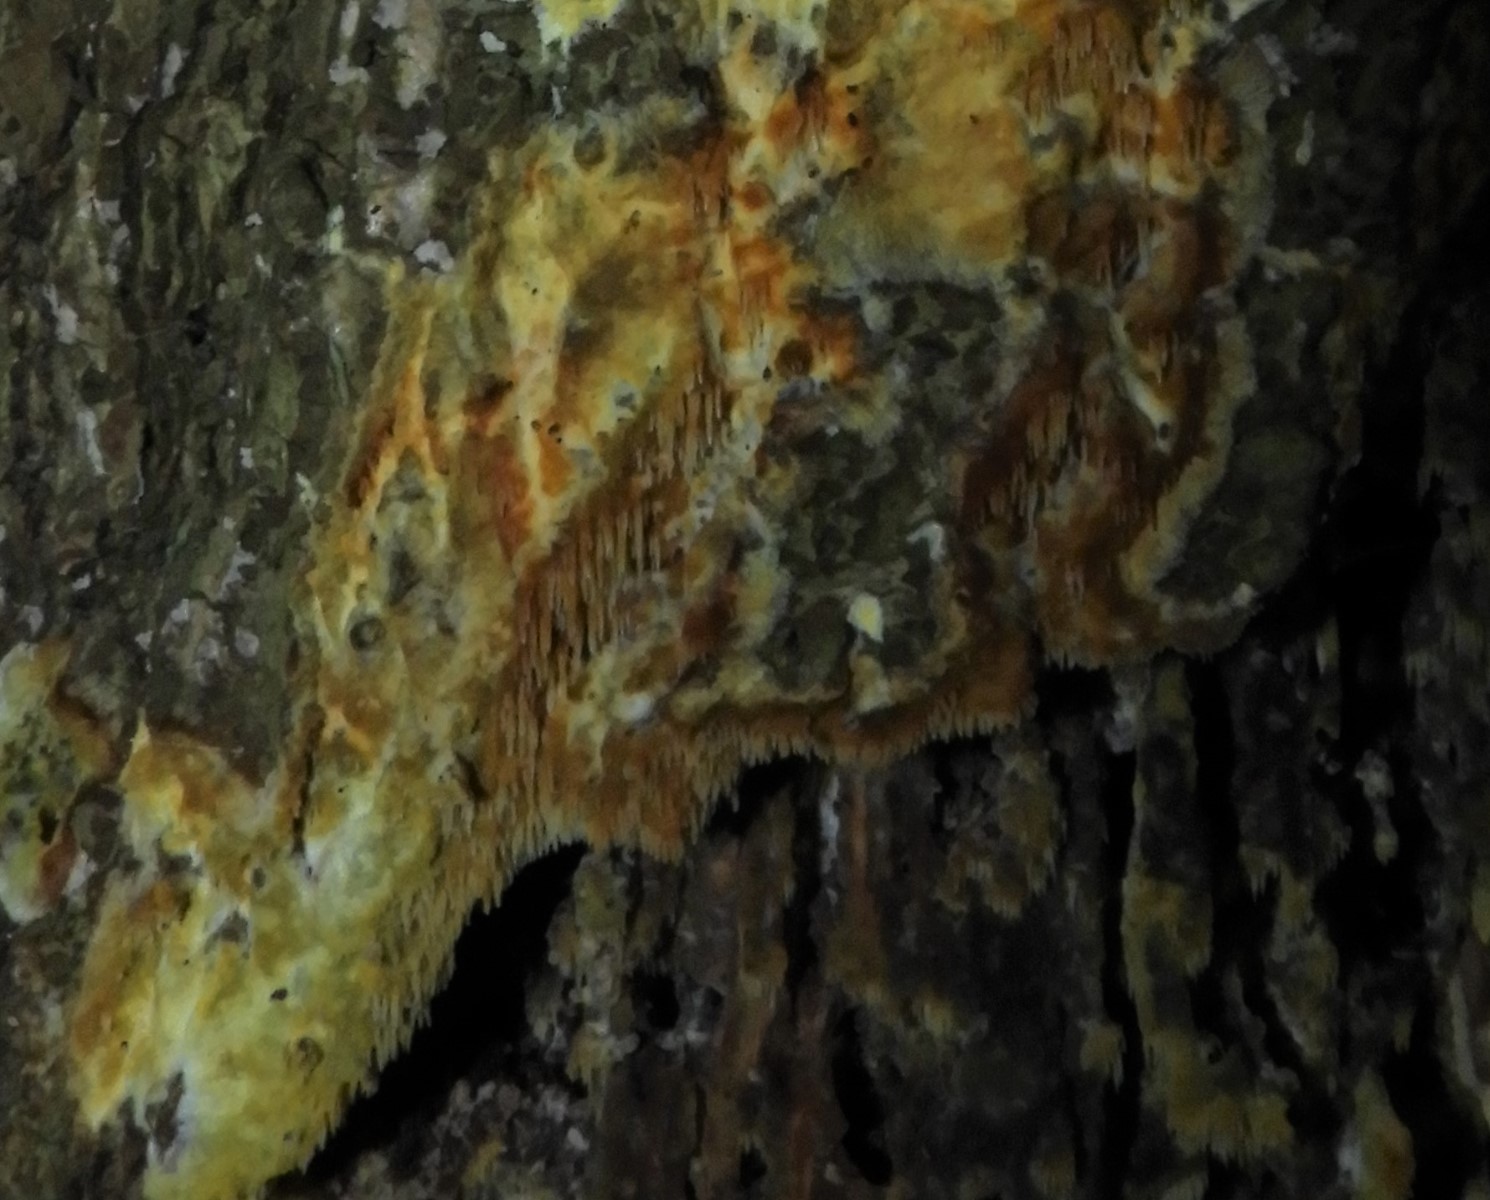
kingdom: Fungi
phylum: Basidiomycota
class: Agaricomycetes
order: Polyporales
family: Meruliaceae
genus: Mycoacia
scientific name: Mycoacia
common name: vokspig
